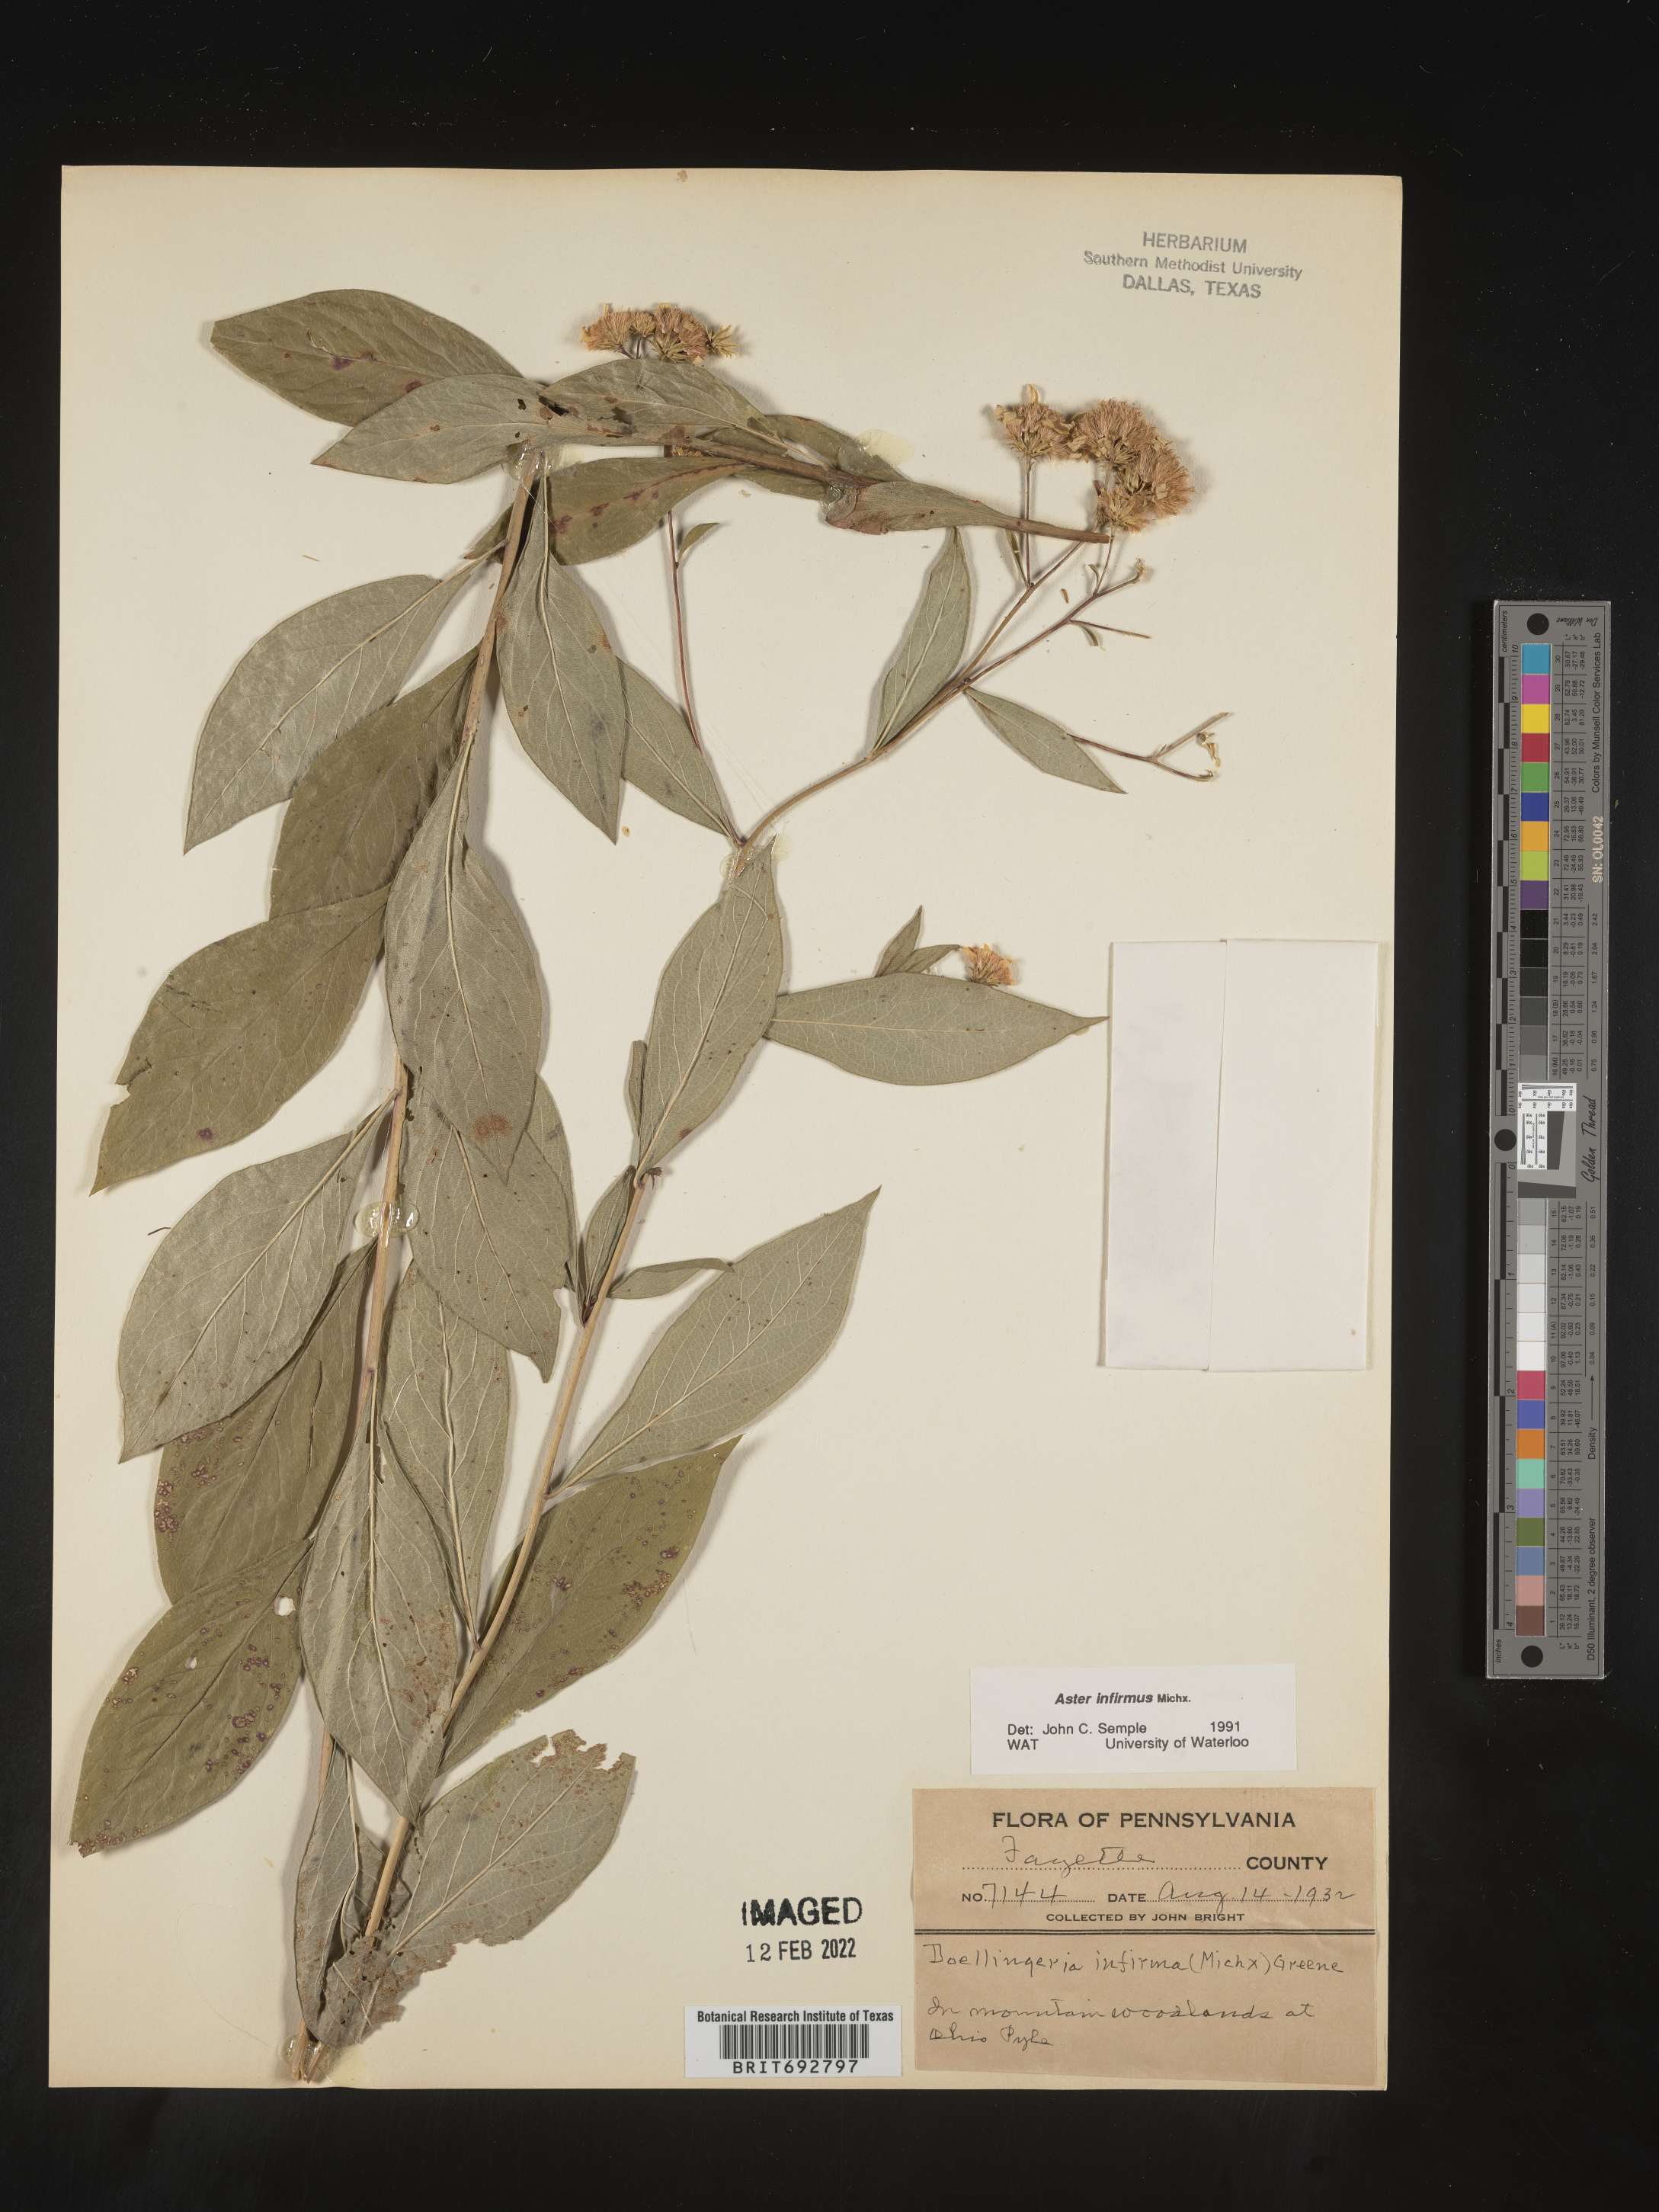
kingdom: Plantae
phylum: Tracheophyta
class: Magnoliopsida
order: Asterales
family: Asteraceae
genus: Doellingeria
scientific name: Doellingeria infirma
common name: Appalachian flat-top aster
